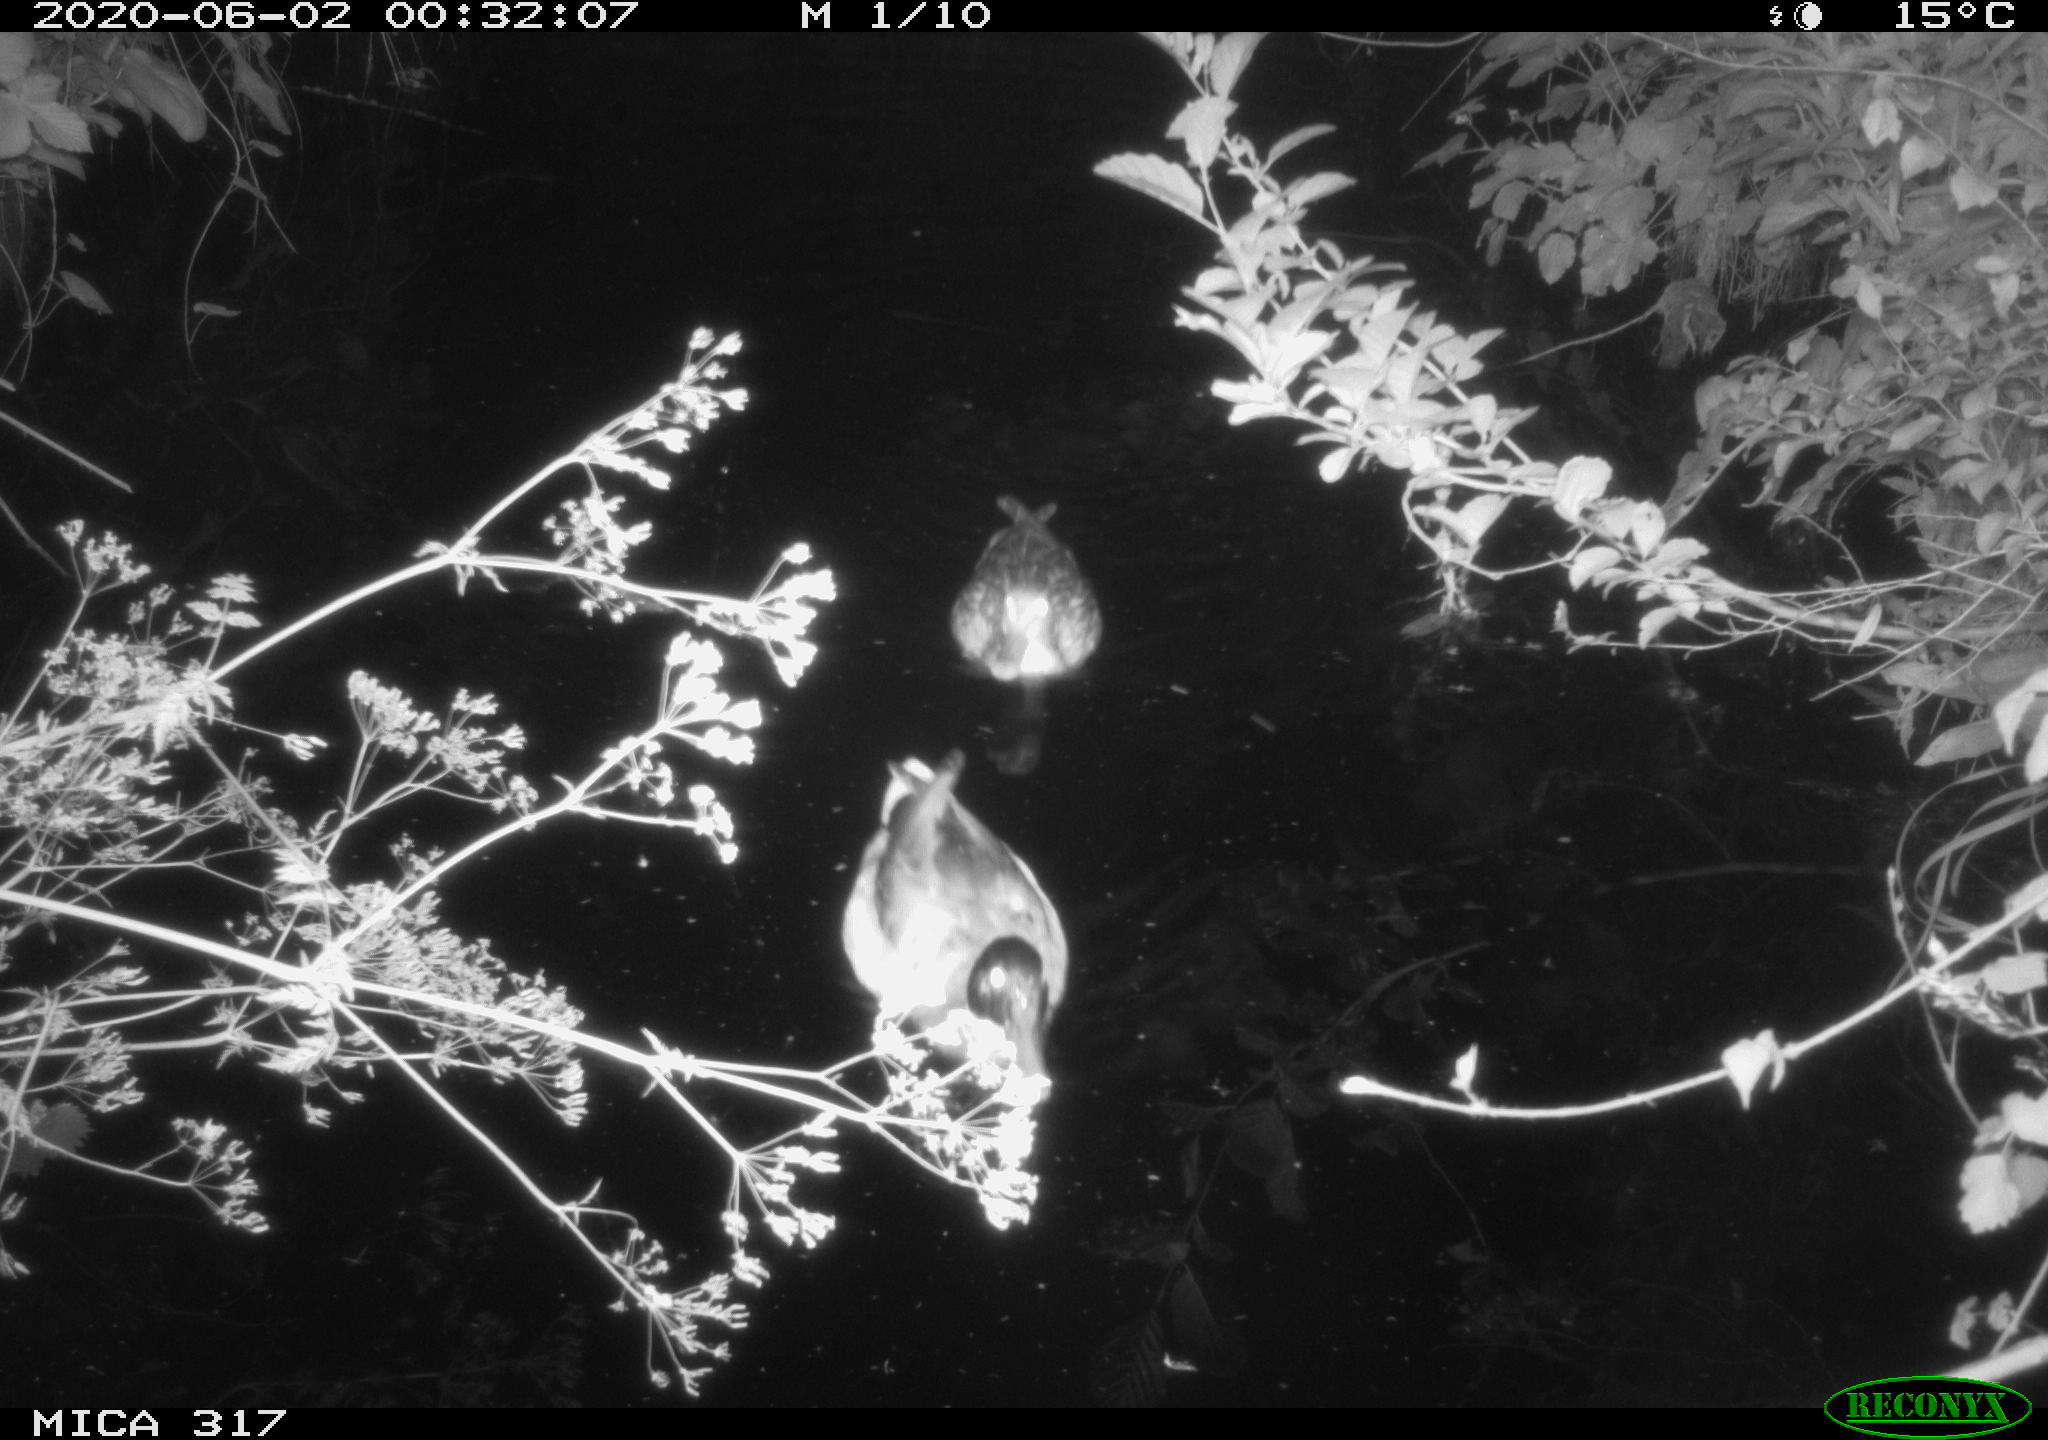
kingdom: Animalia
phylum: Chordata
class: Aves
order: Anseriformes
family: Anatidae
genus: Anas
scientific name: Anas platyrhynchos
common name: Mallard
